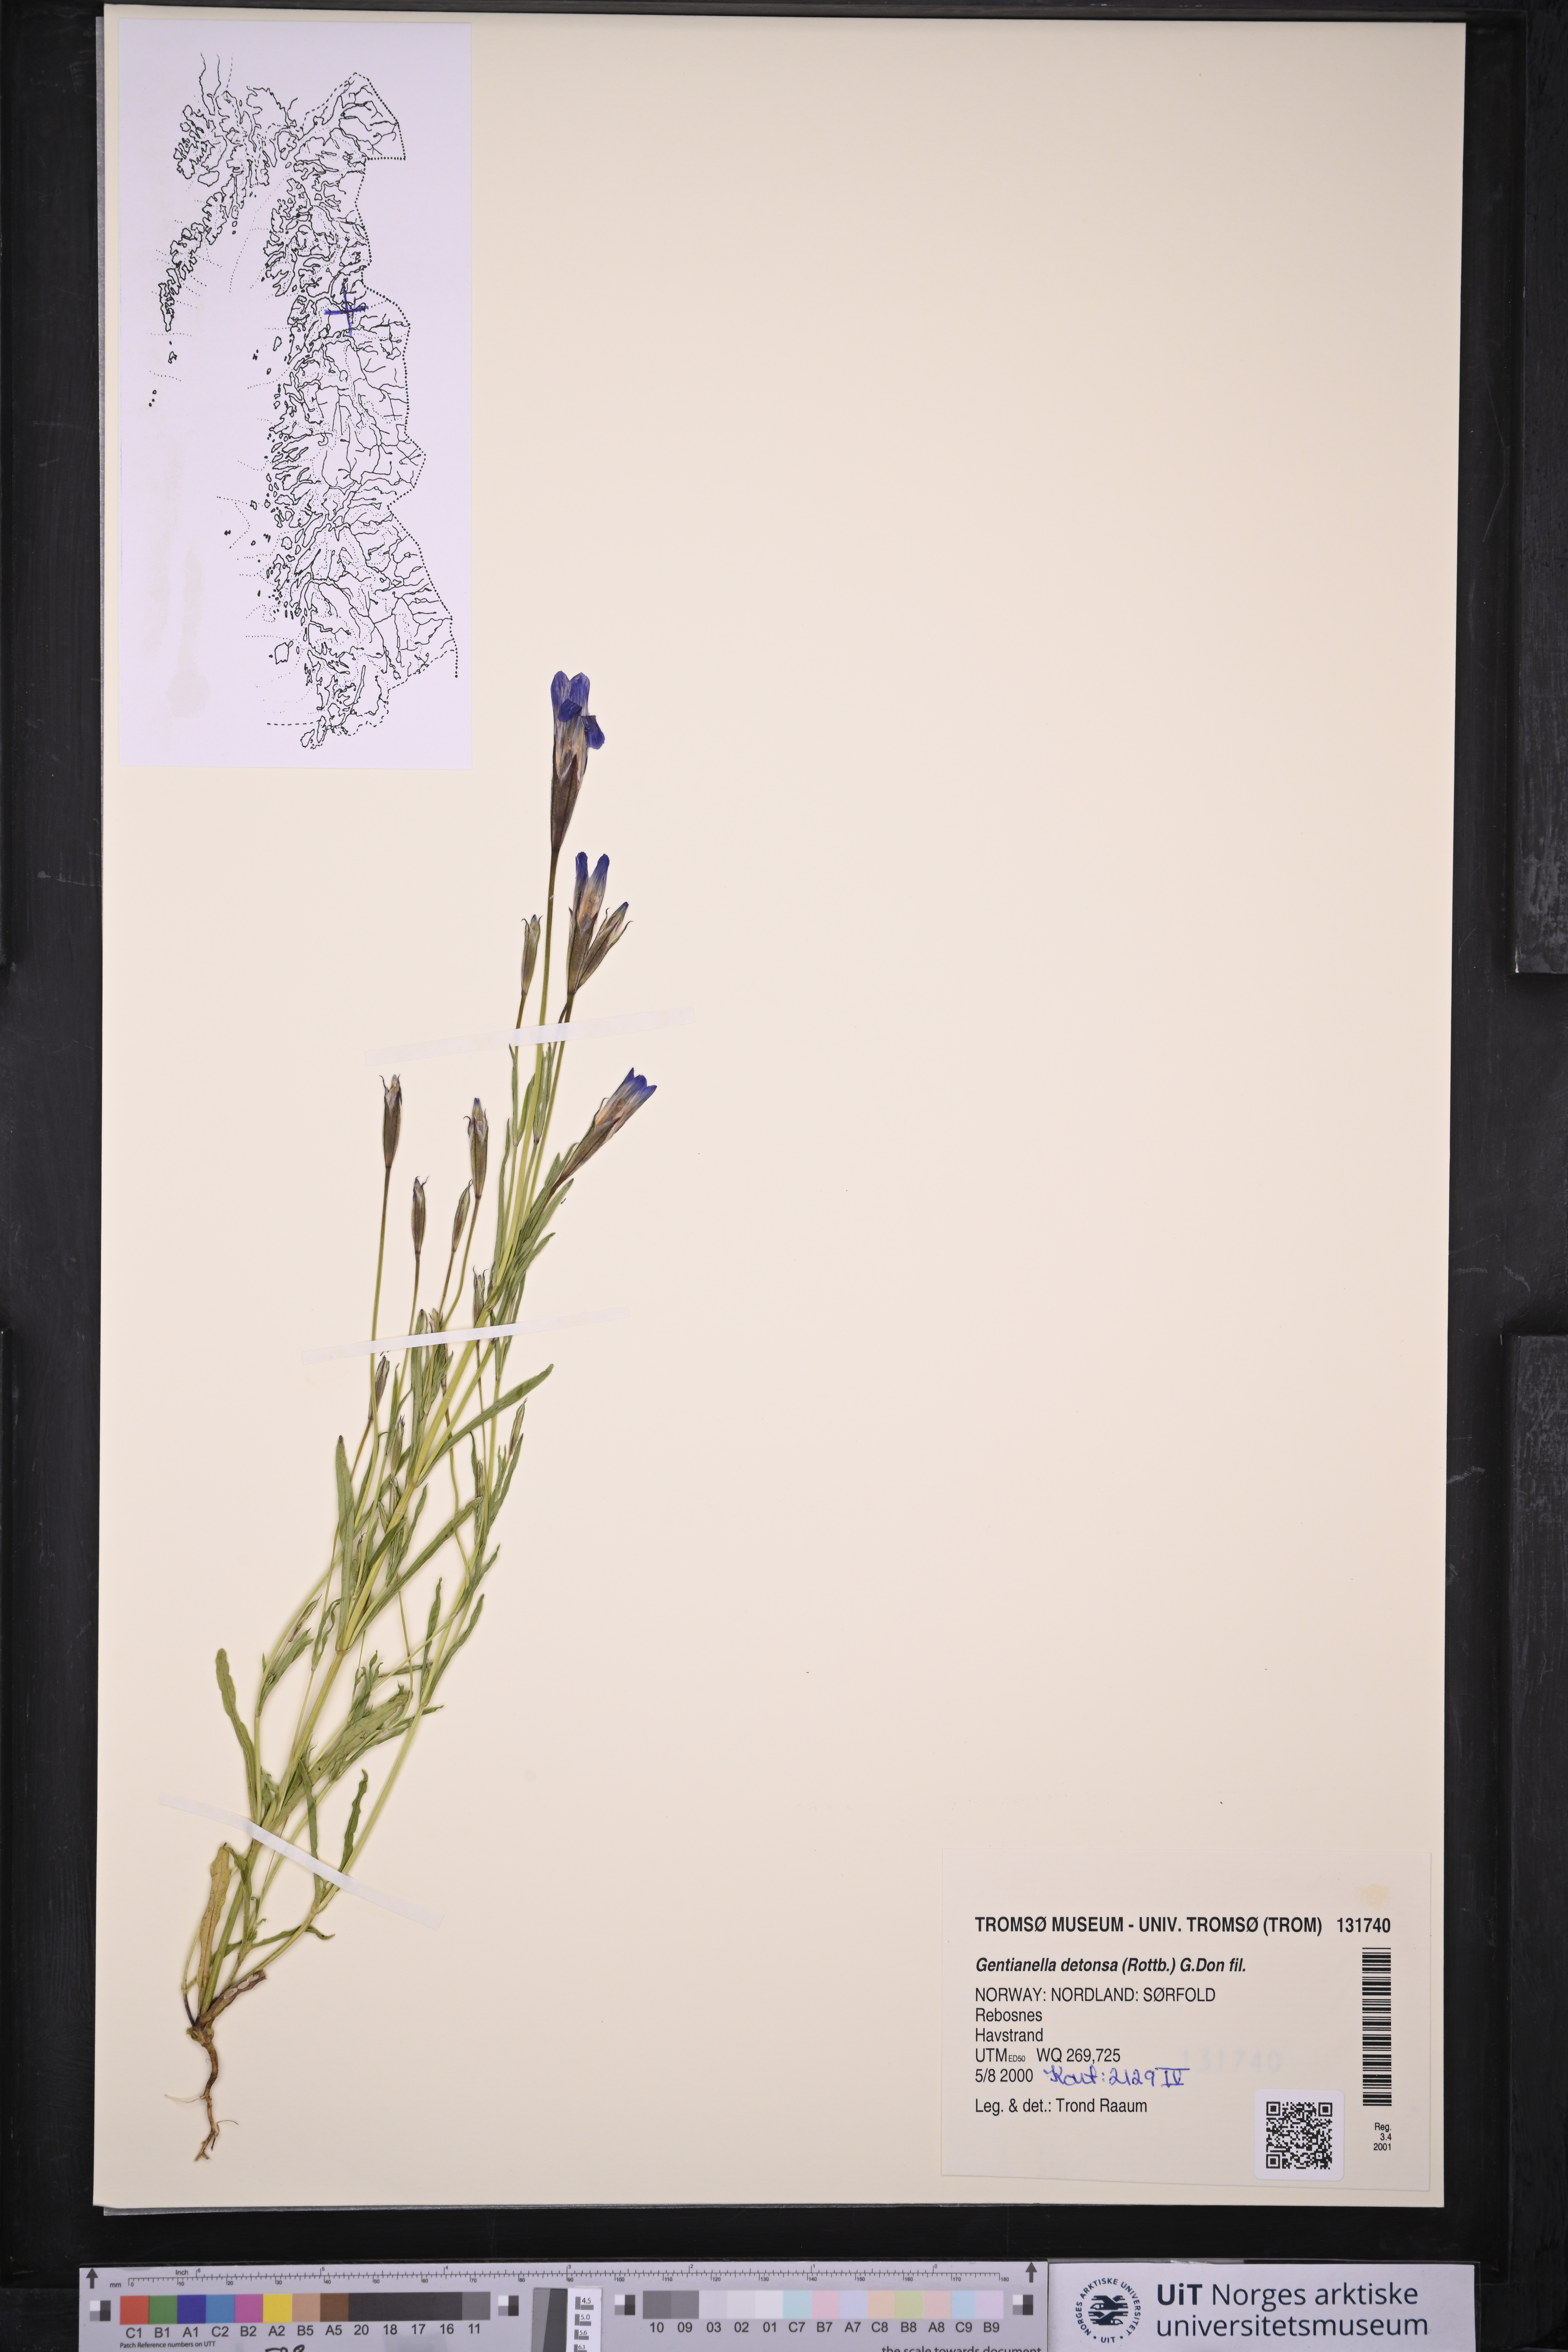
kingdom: Plantae
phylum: Tracheophyta
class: Magnoliopsida
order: Gentianales
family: Gentianaceae
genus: Gentianopsis
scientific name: Gentianopsis detonsa
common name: Fringed-gentian
